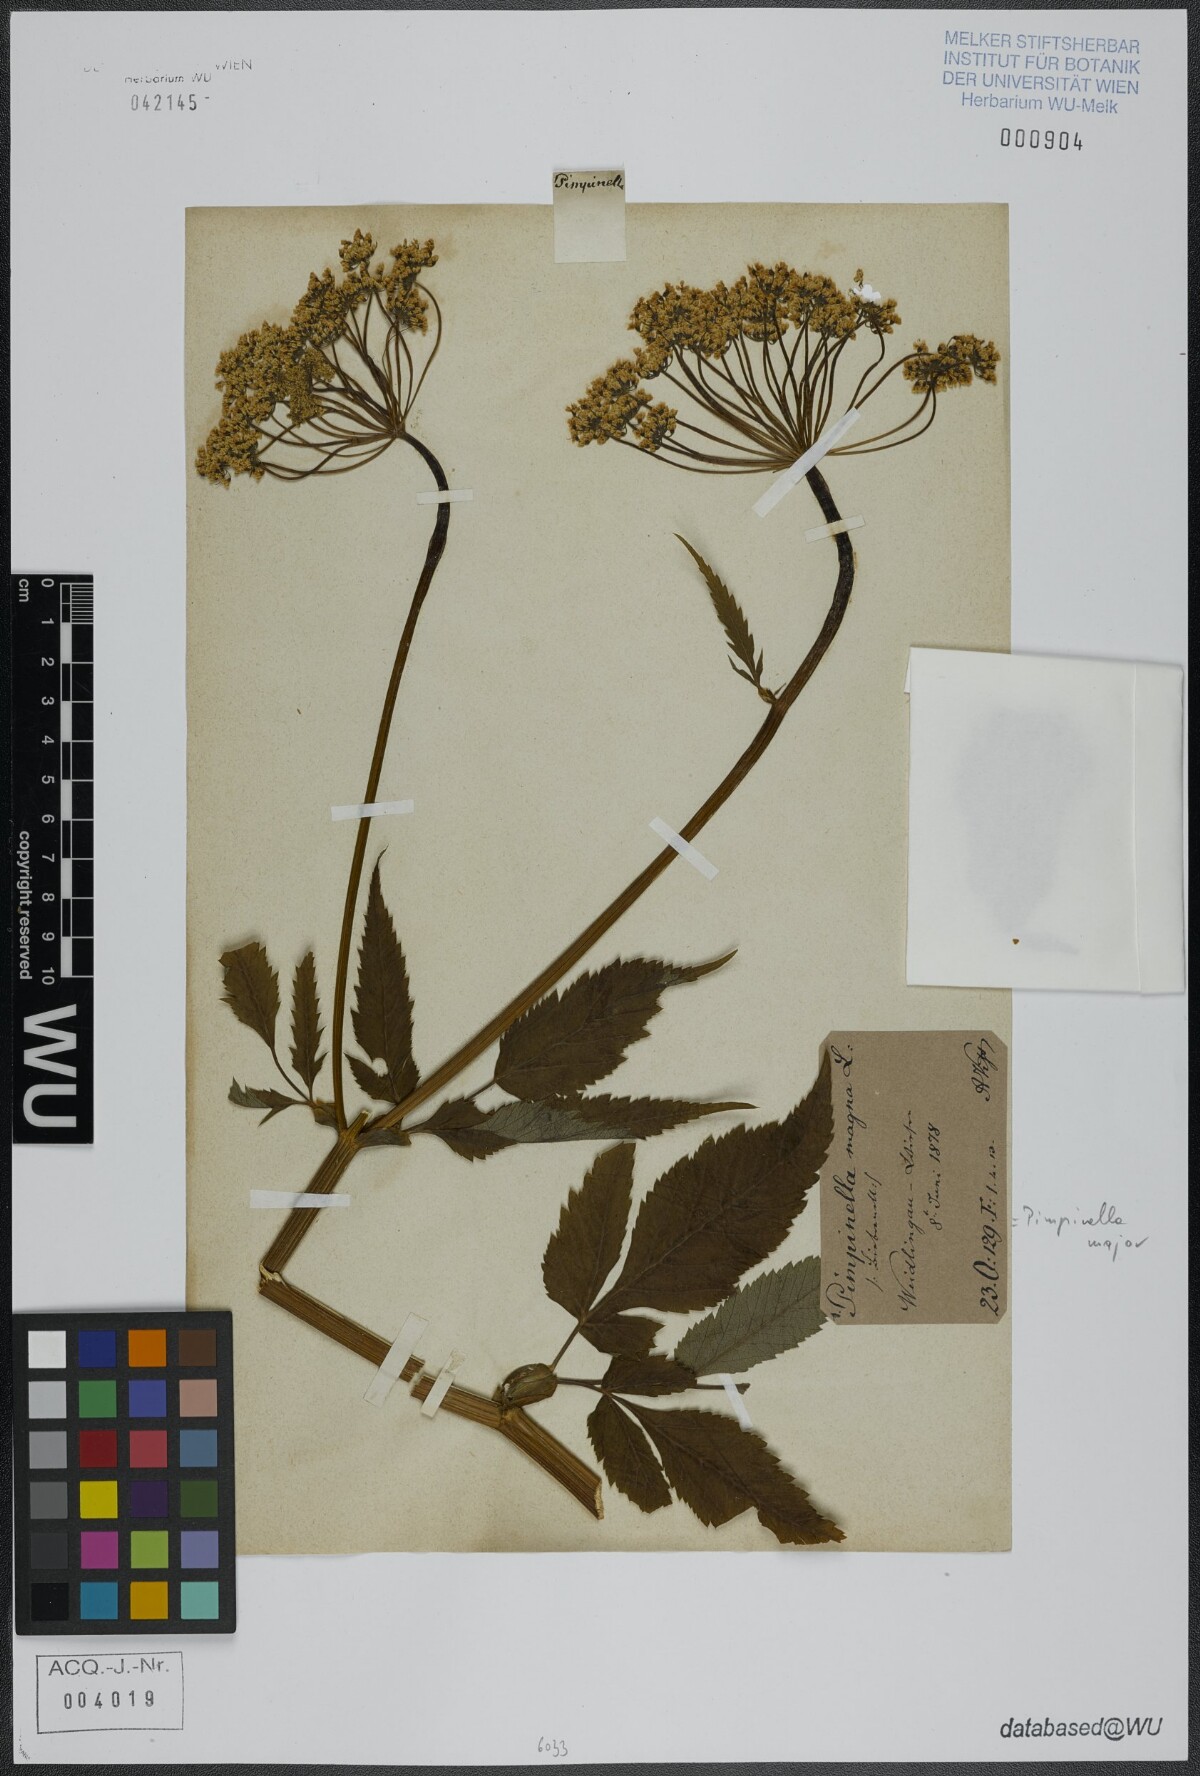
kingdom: Plantae
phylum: Tracheophyta
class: Magnoliopsida
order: Apiales
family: Apiaceae
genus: Pimpinella
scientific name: Pimpinella major
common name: Greater burnet-saxifrage
